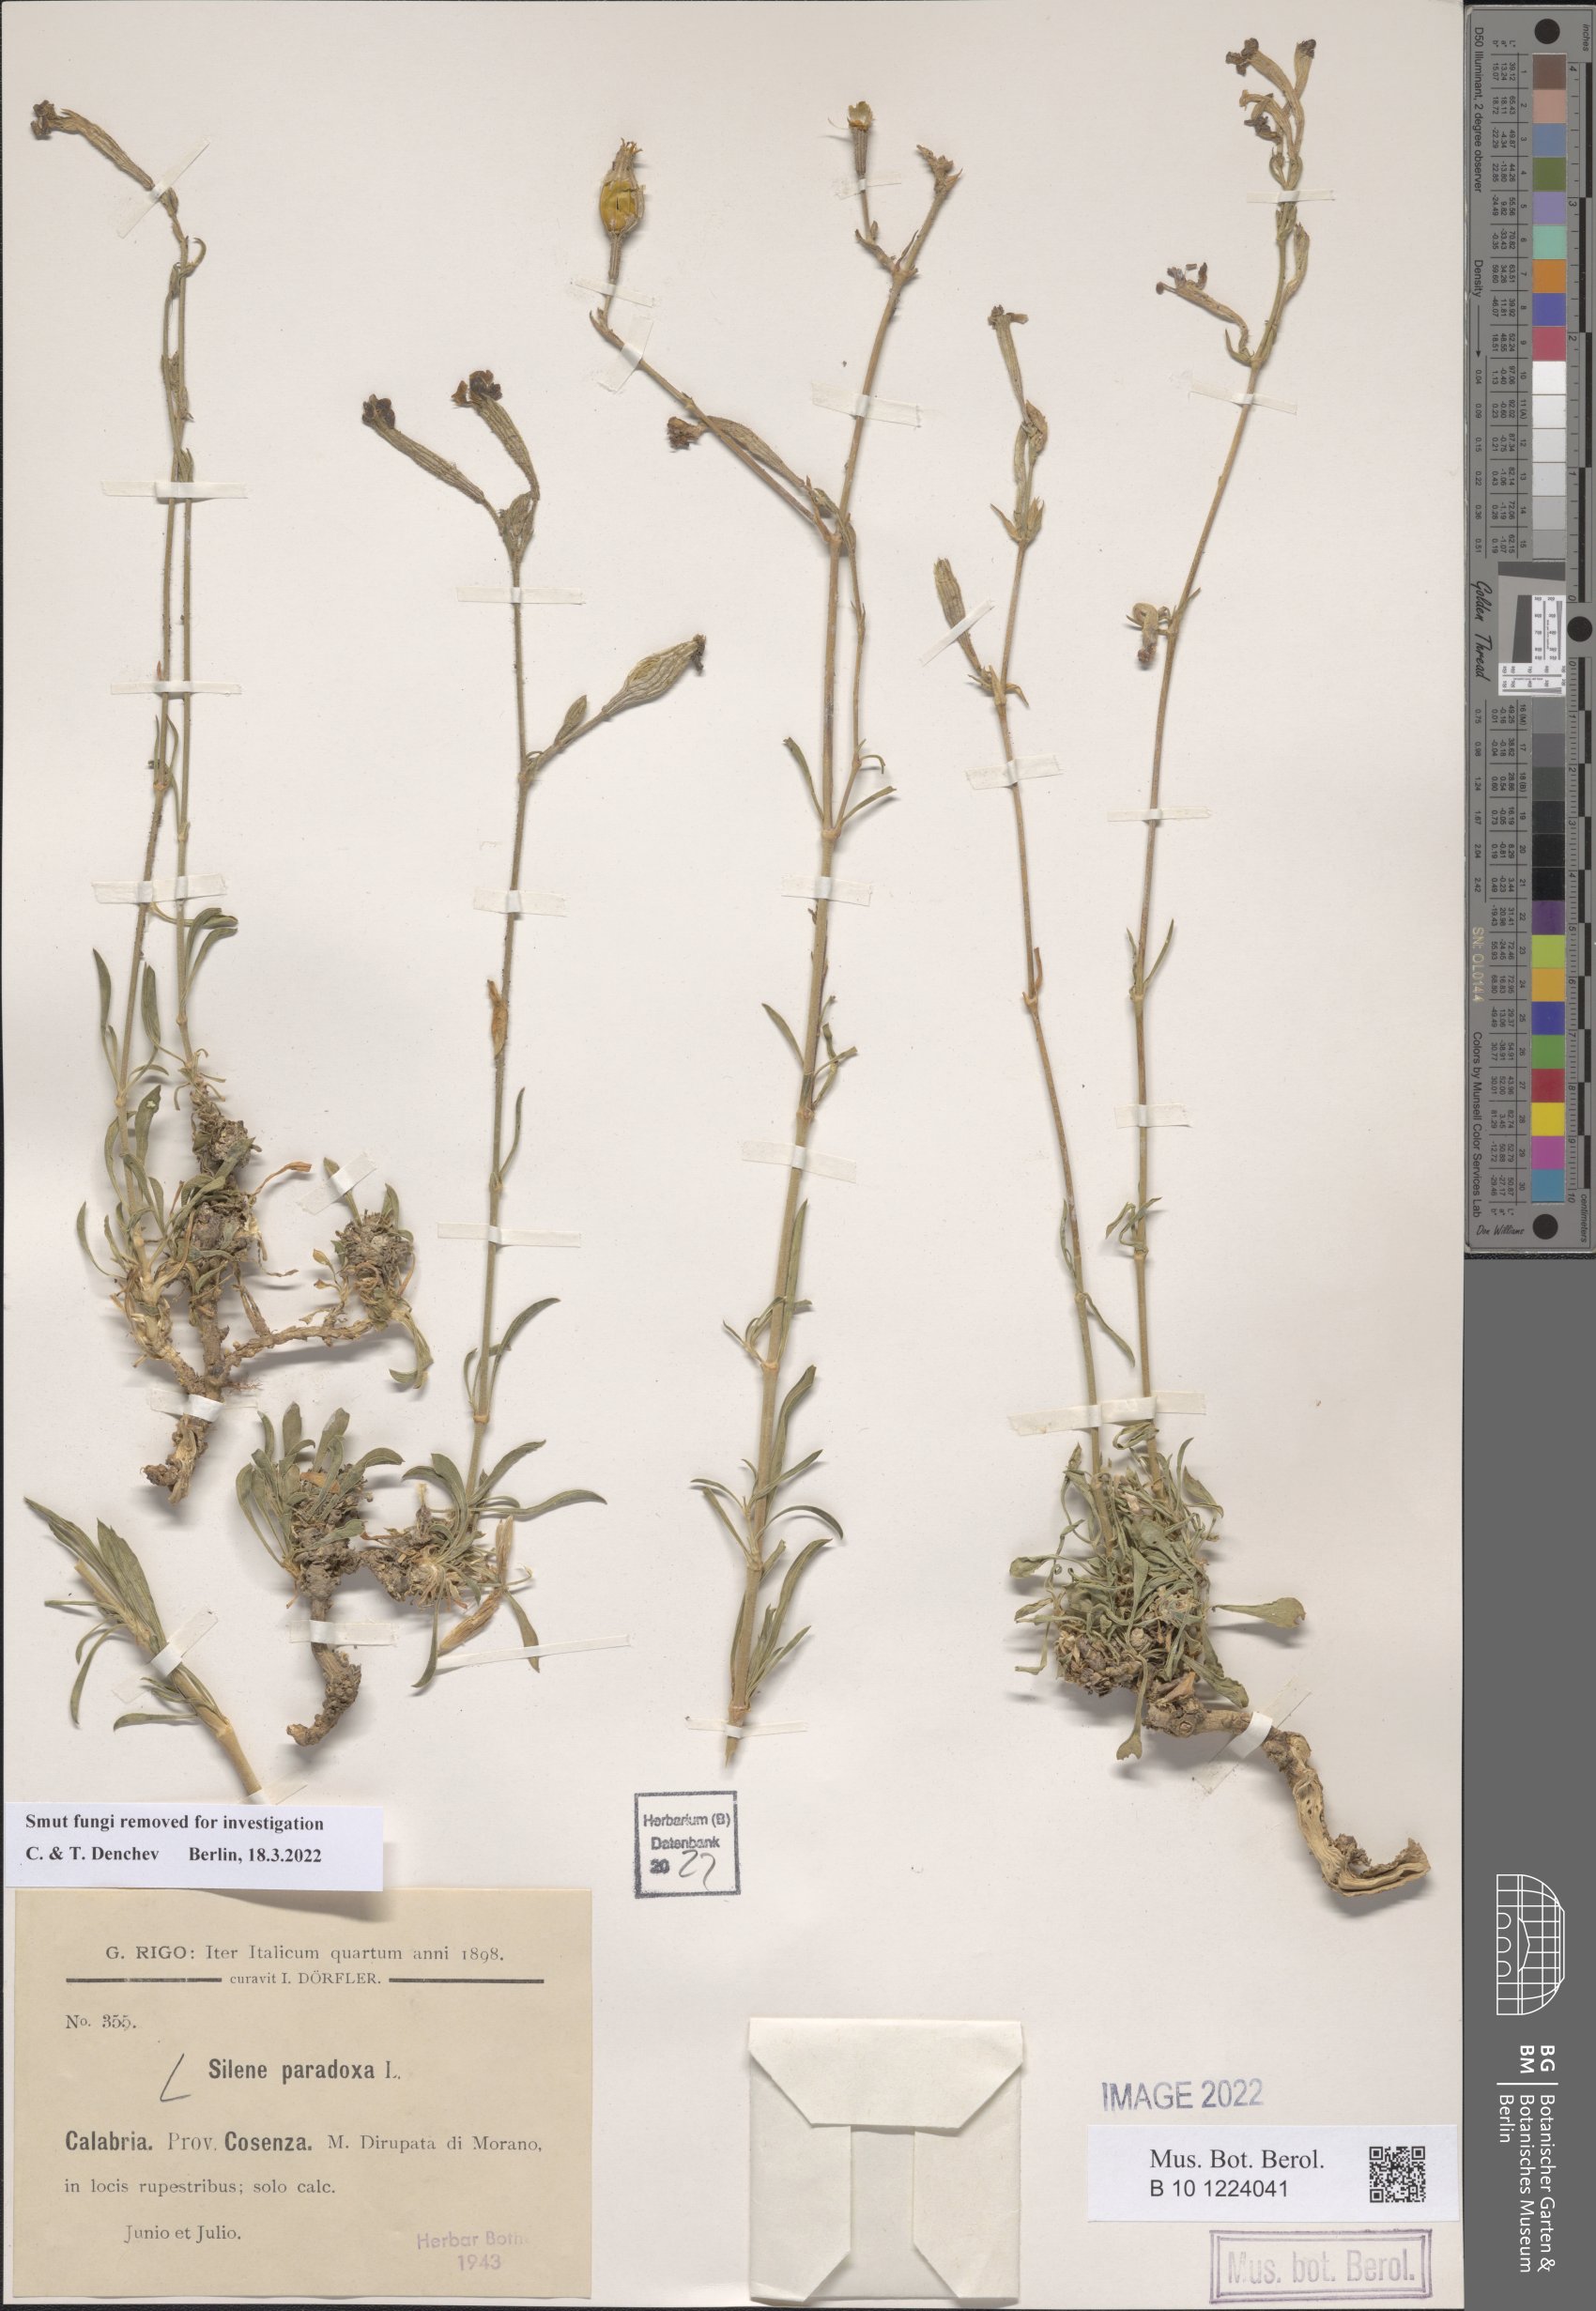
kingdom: Plantae
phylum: Tracheophyta
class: Magnoliopsida
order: Caryophyllales
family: Caryophyllaceae
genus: Silene
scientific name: Silene paradoxa
